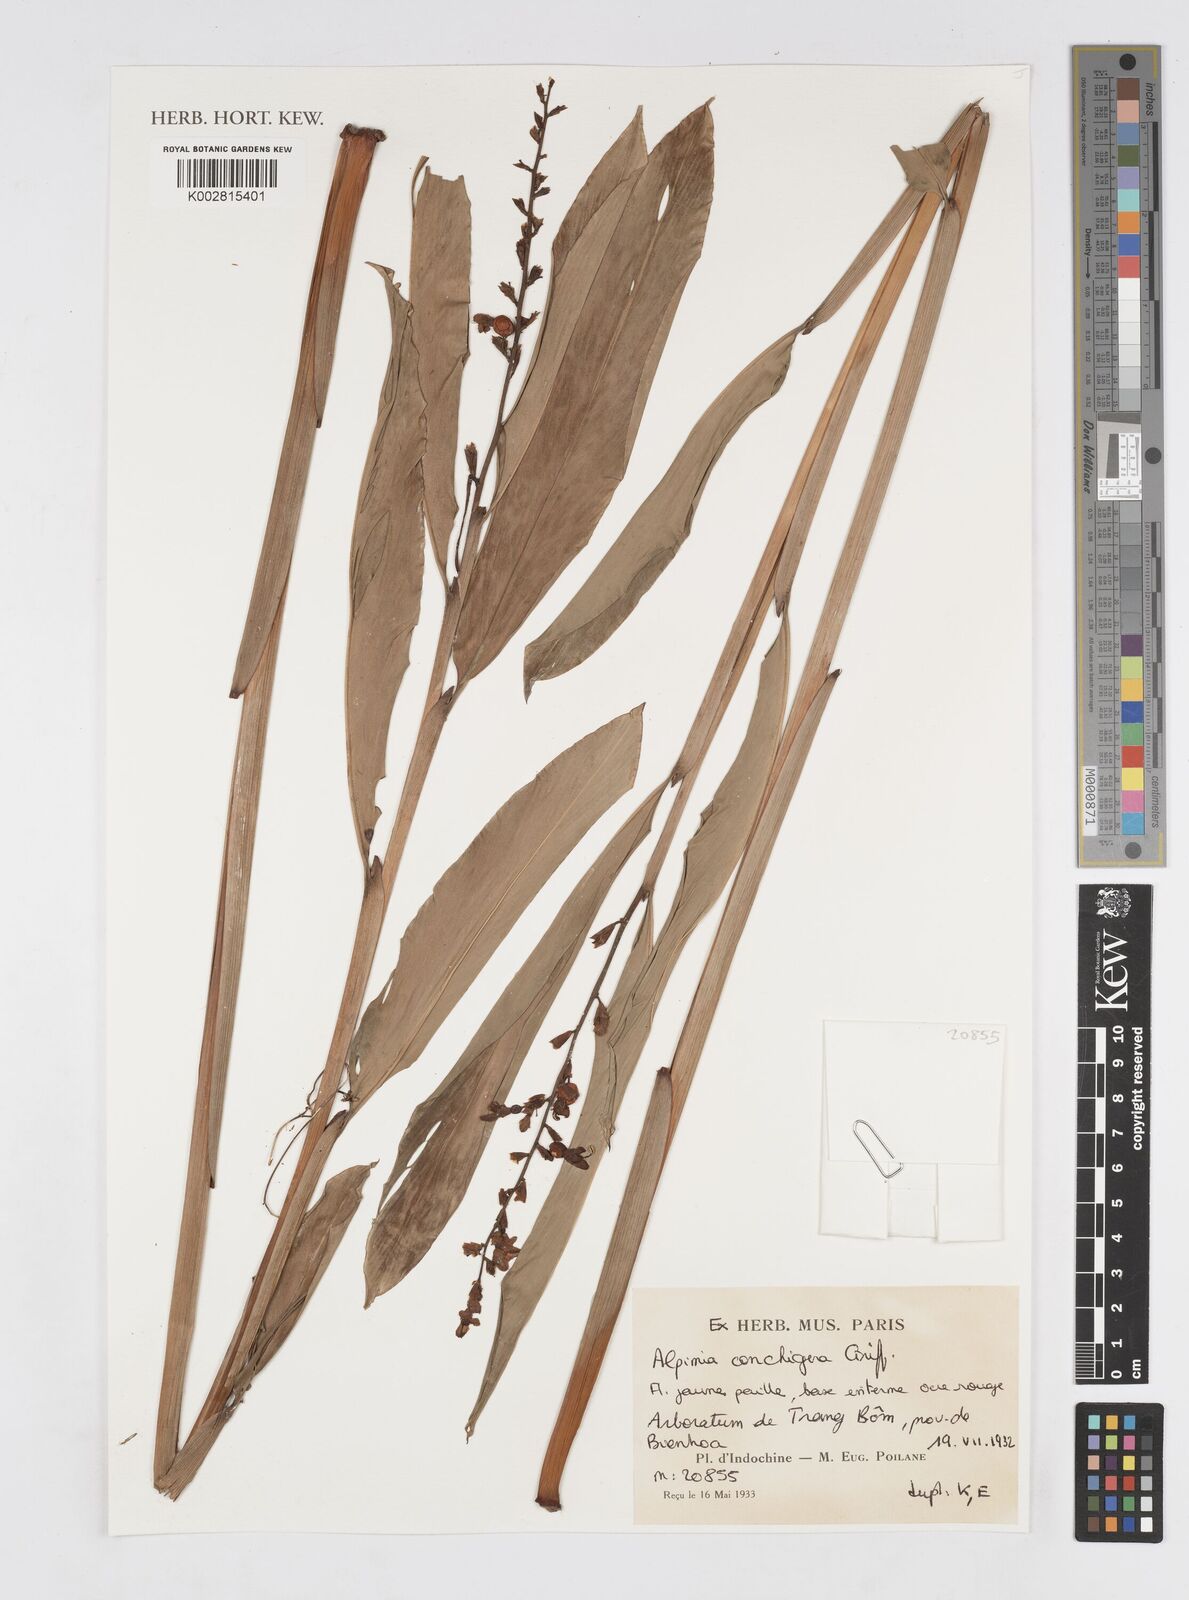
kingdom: Plantae
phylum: Tracheophyta
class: Liliopsida
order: Zingiberales
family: Zingiberaceae
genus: Alpinia
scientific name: Alpinia conchigera
